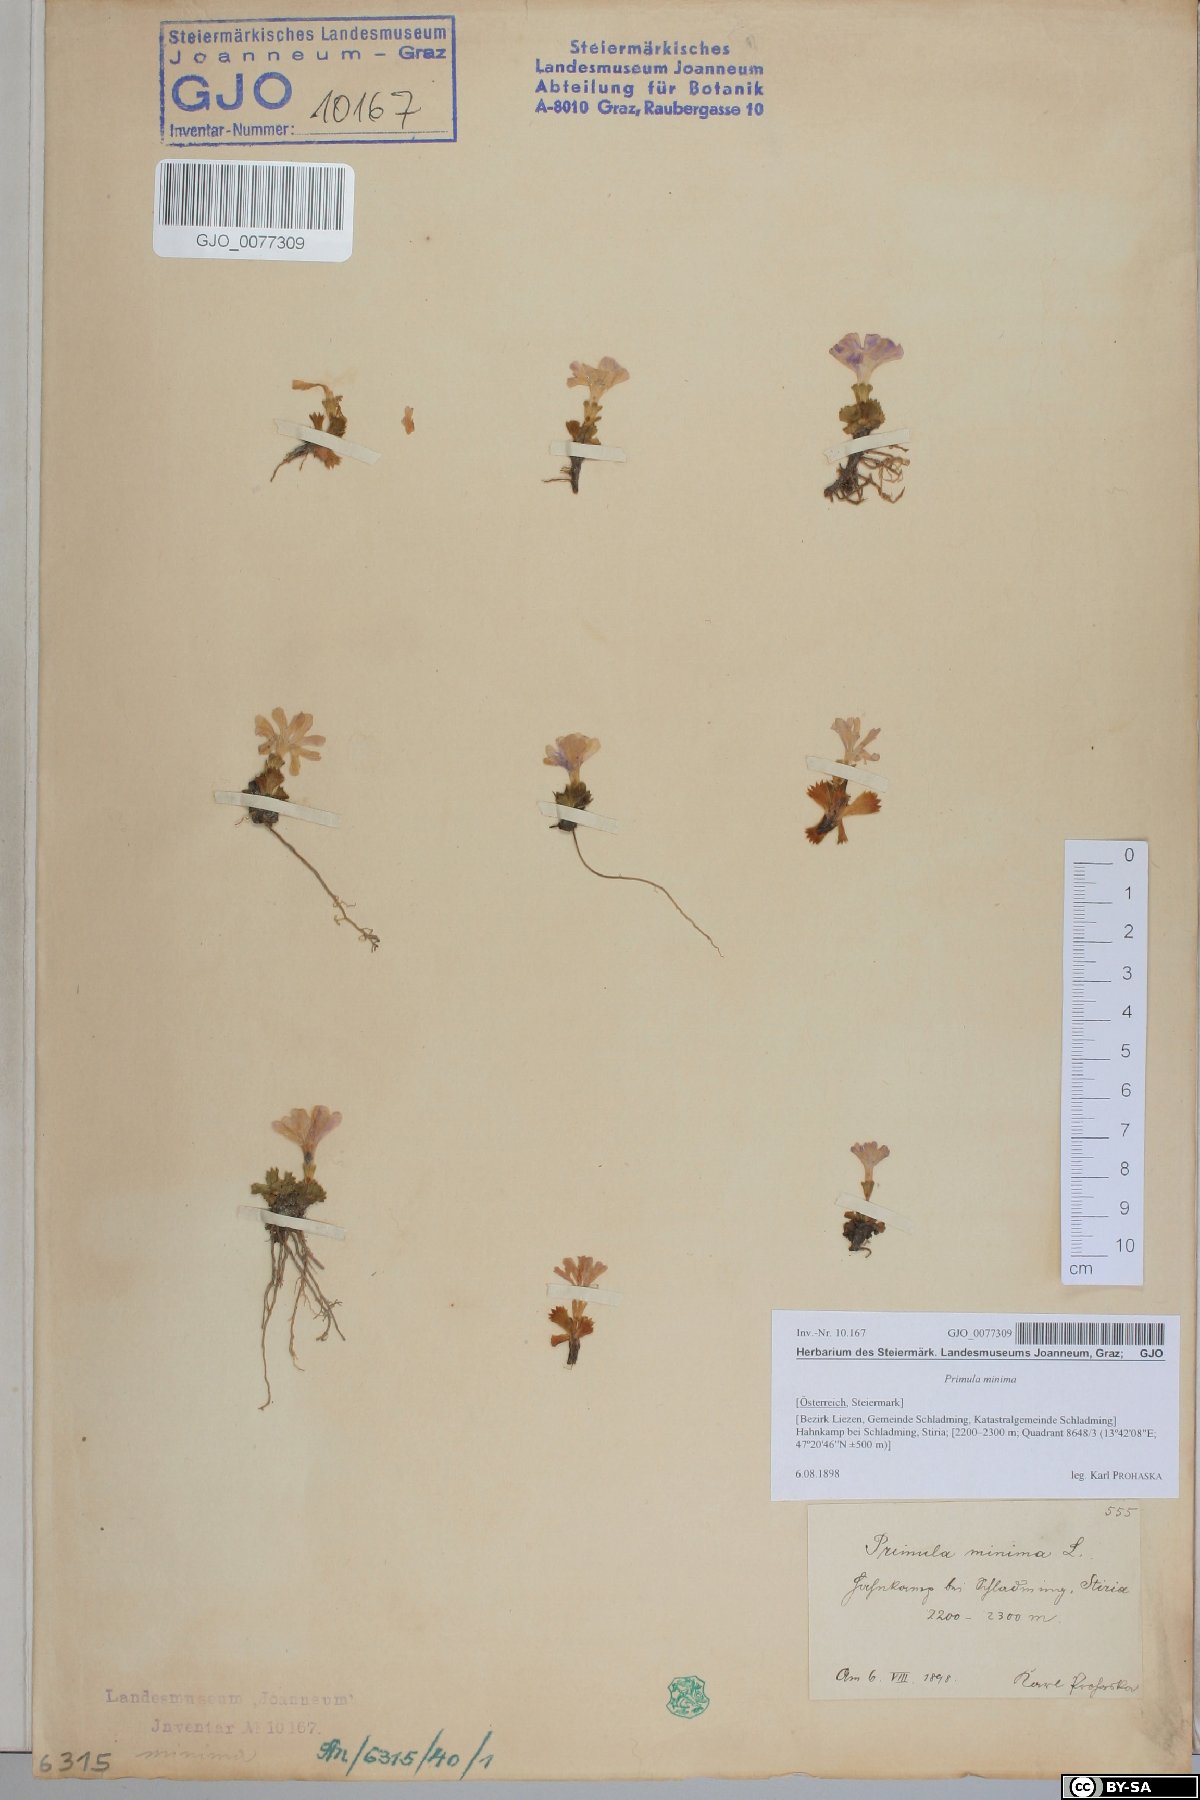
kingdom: Plantae
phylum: Tracheophyta
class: Magnoliopsida
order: Ericales
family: Primulaceae
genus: Primula
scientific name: Primula minima
